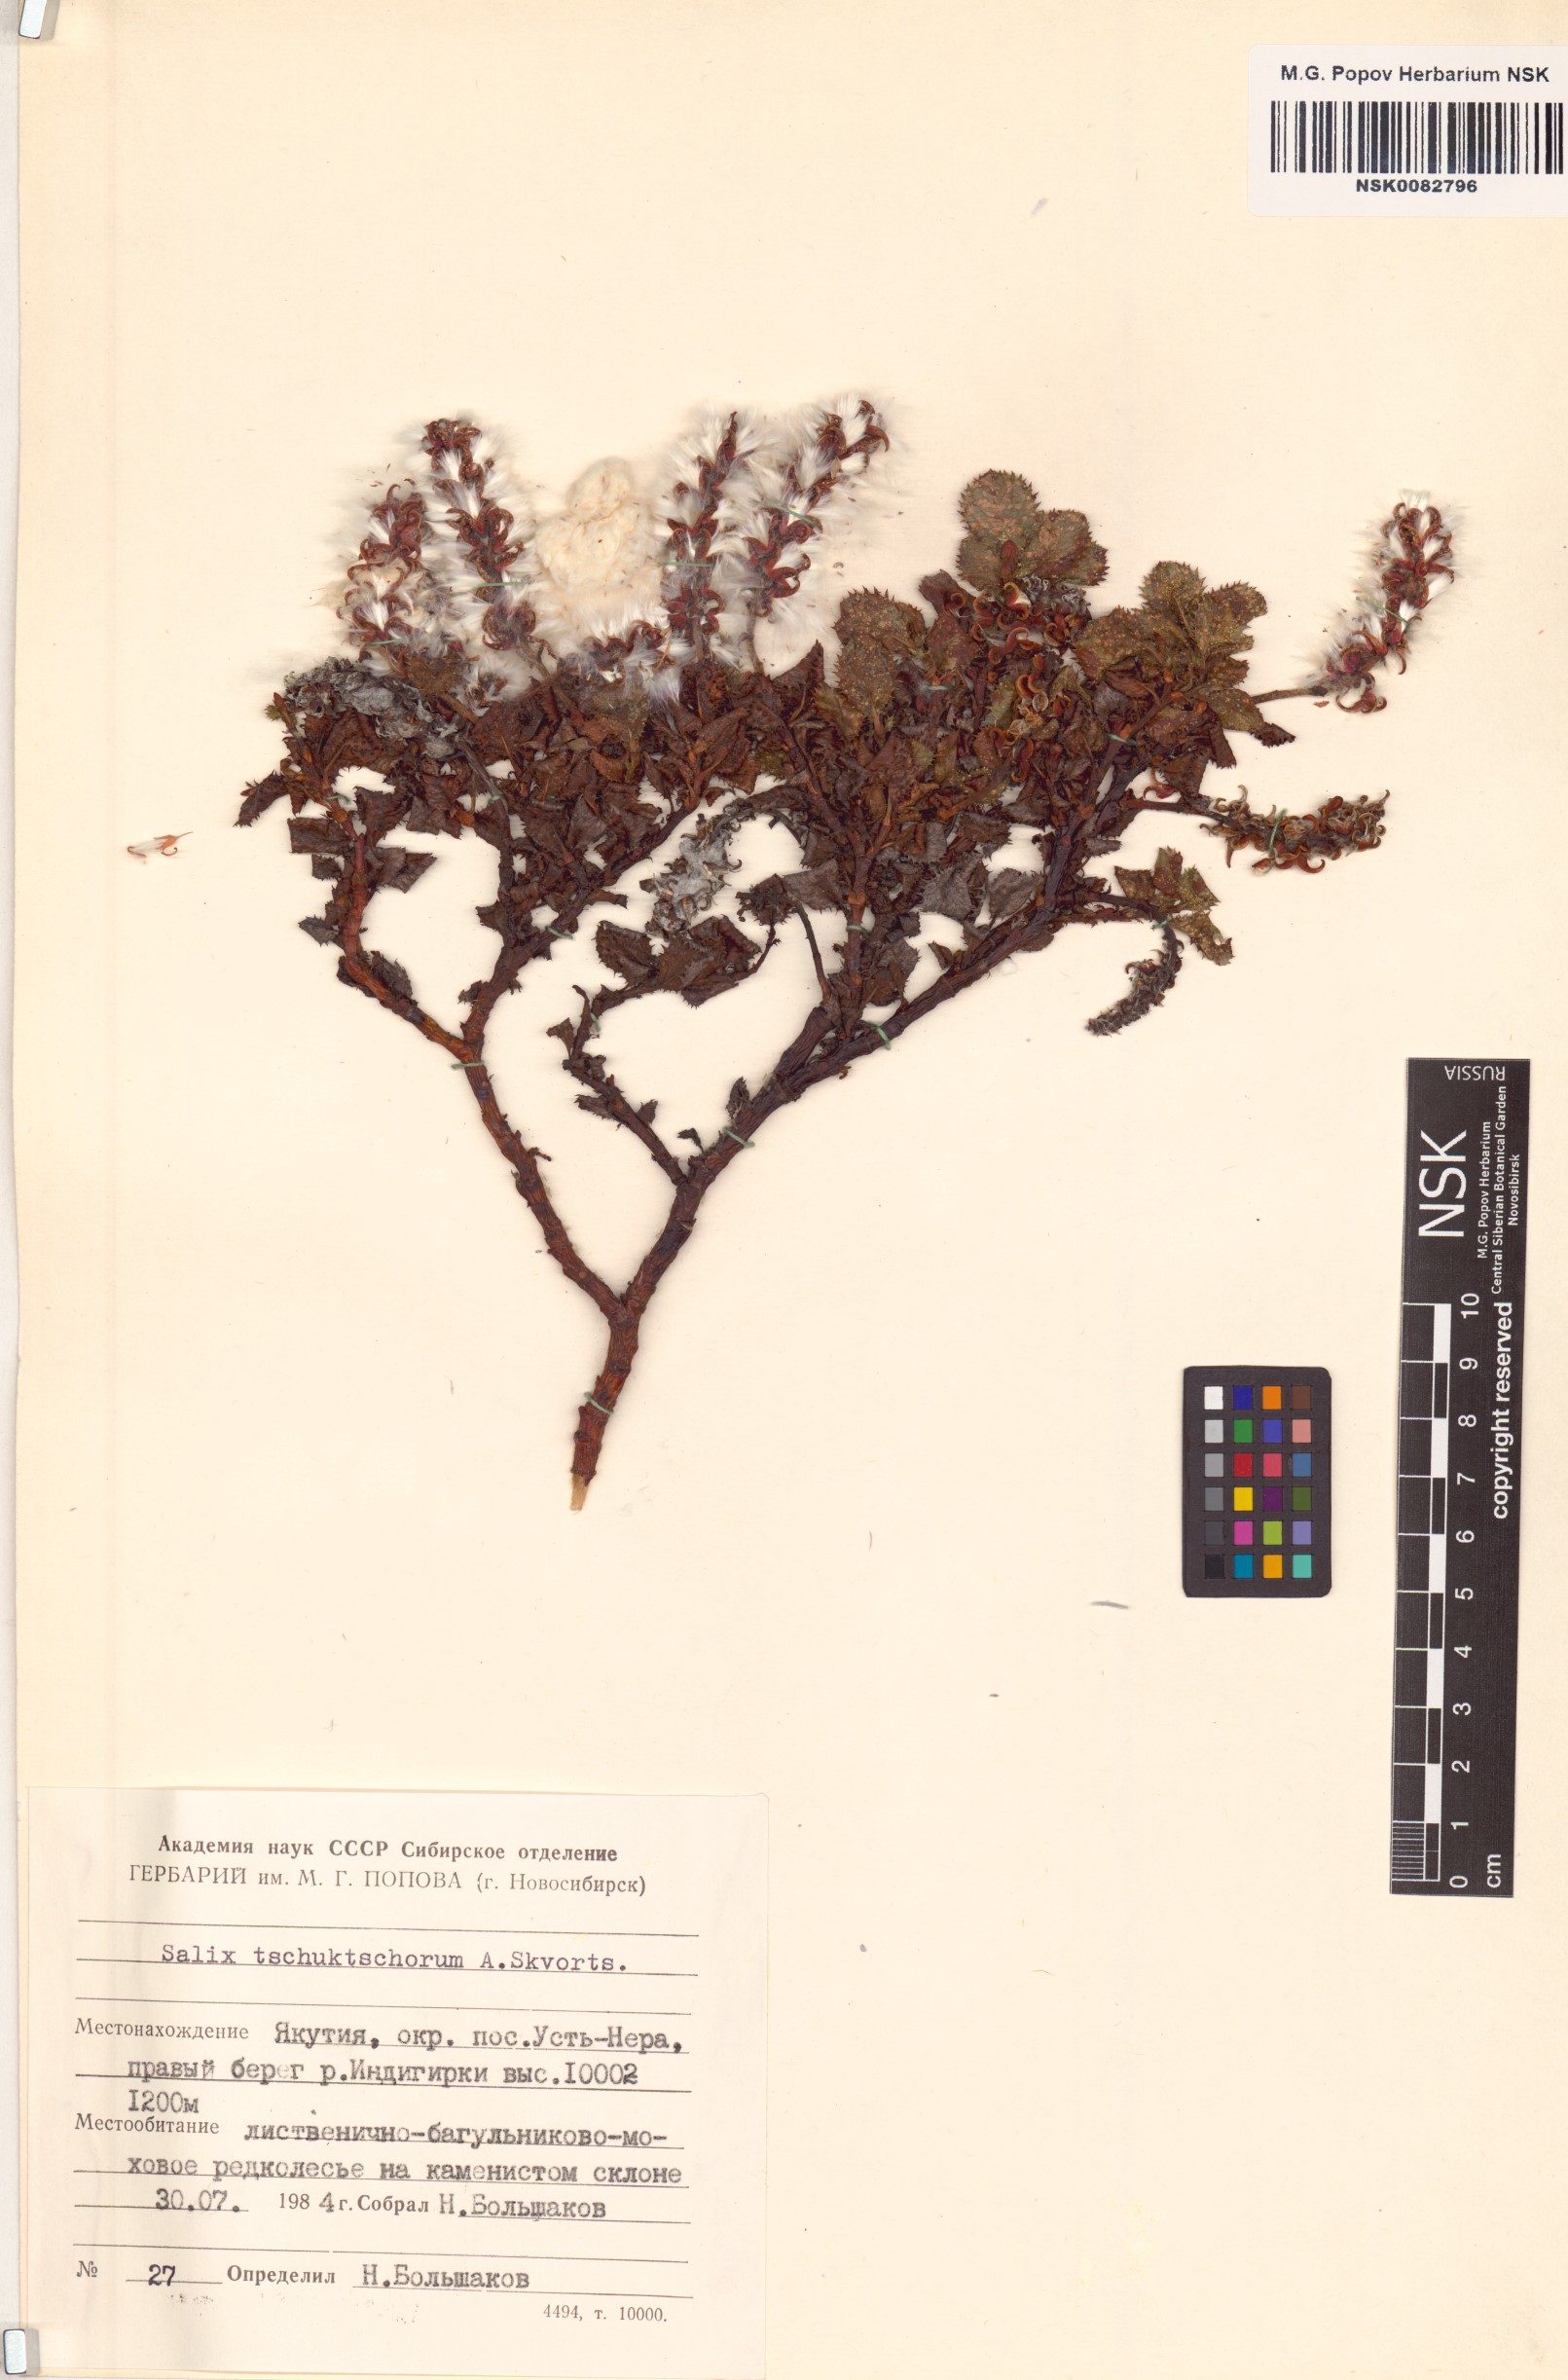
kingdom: Plantae
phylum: Tracheophyta
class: Magnoliopsida
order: Malpighiales
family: Salicaceae
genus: Salix
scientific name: Salix tschuktschorum
